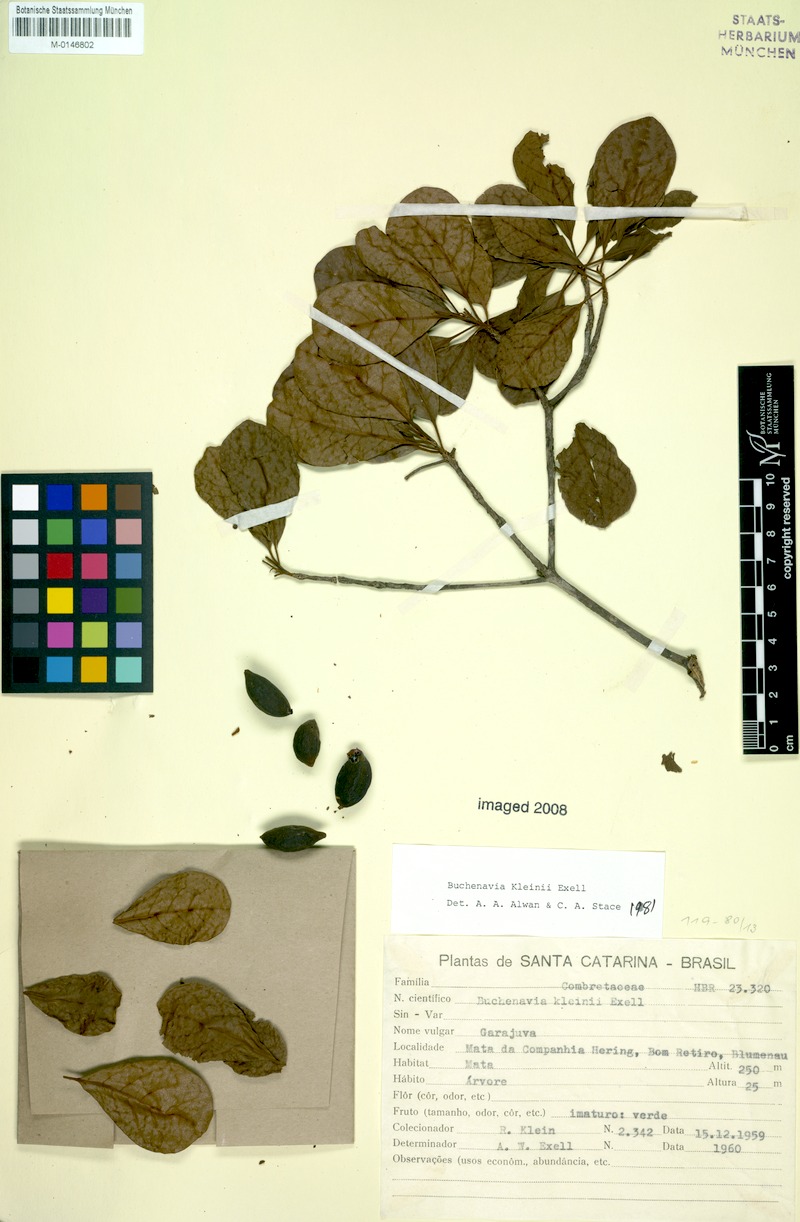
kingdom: Plantae
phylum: Tracheophyta
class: Magnoliopsida
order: Myrtales
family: Combretaceae
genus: Terminalia
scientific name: Terminalia kleinii
